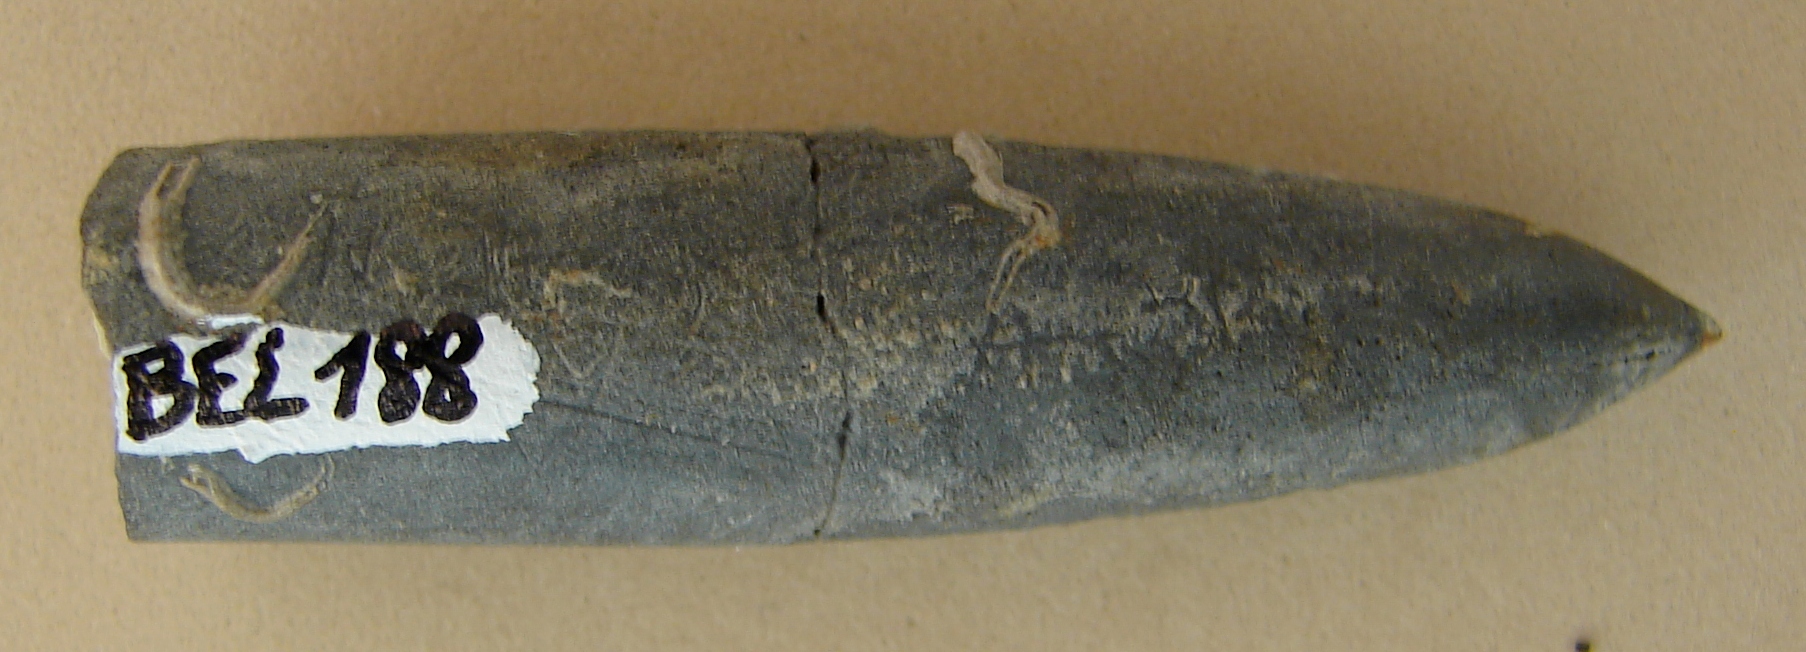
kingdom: Animalia
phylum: Mollusca
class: Cephalopoda
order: Belemnitida
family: Holcobelidae
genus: Calabribelus
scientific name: Calabribelus
